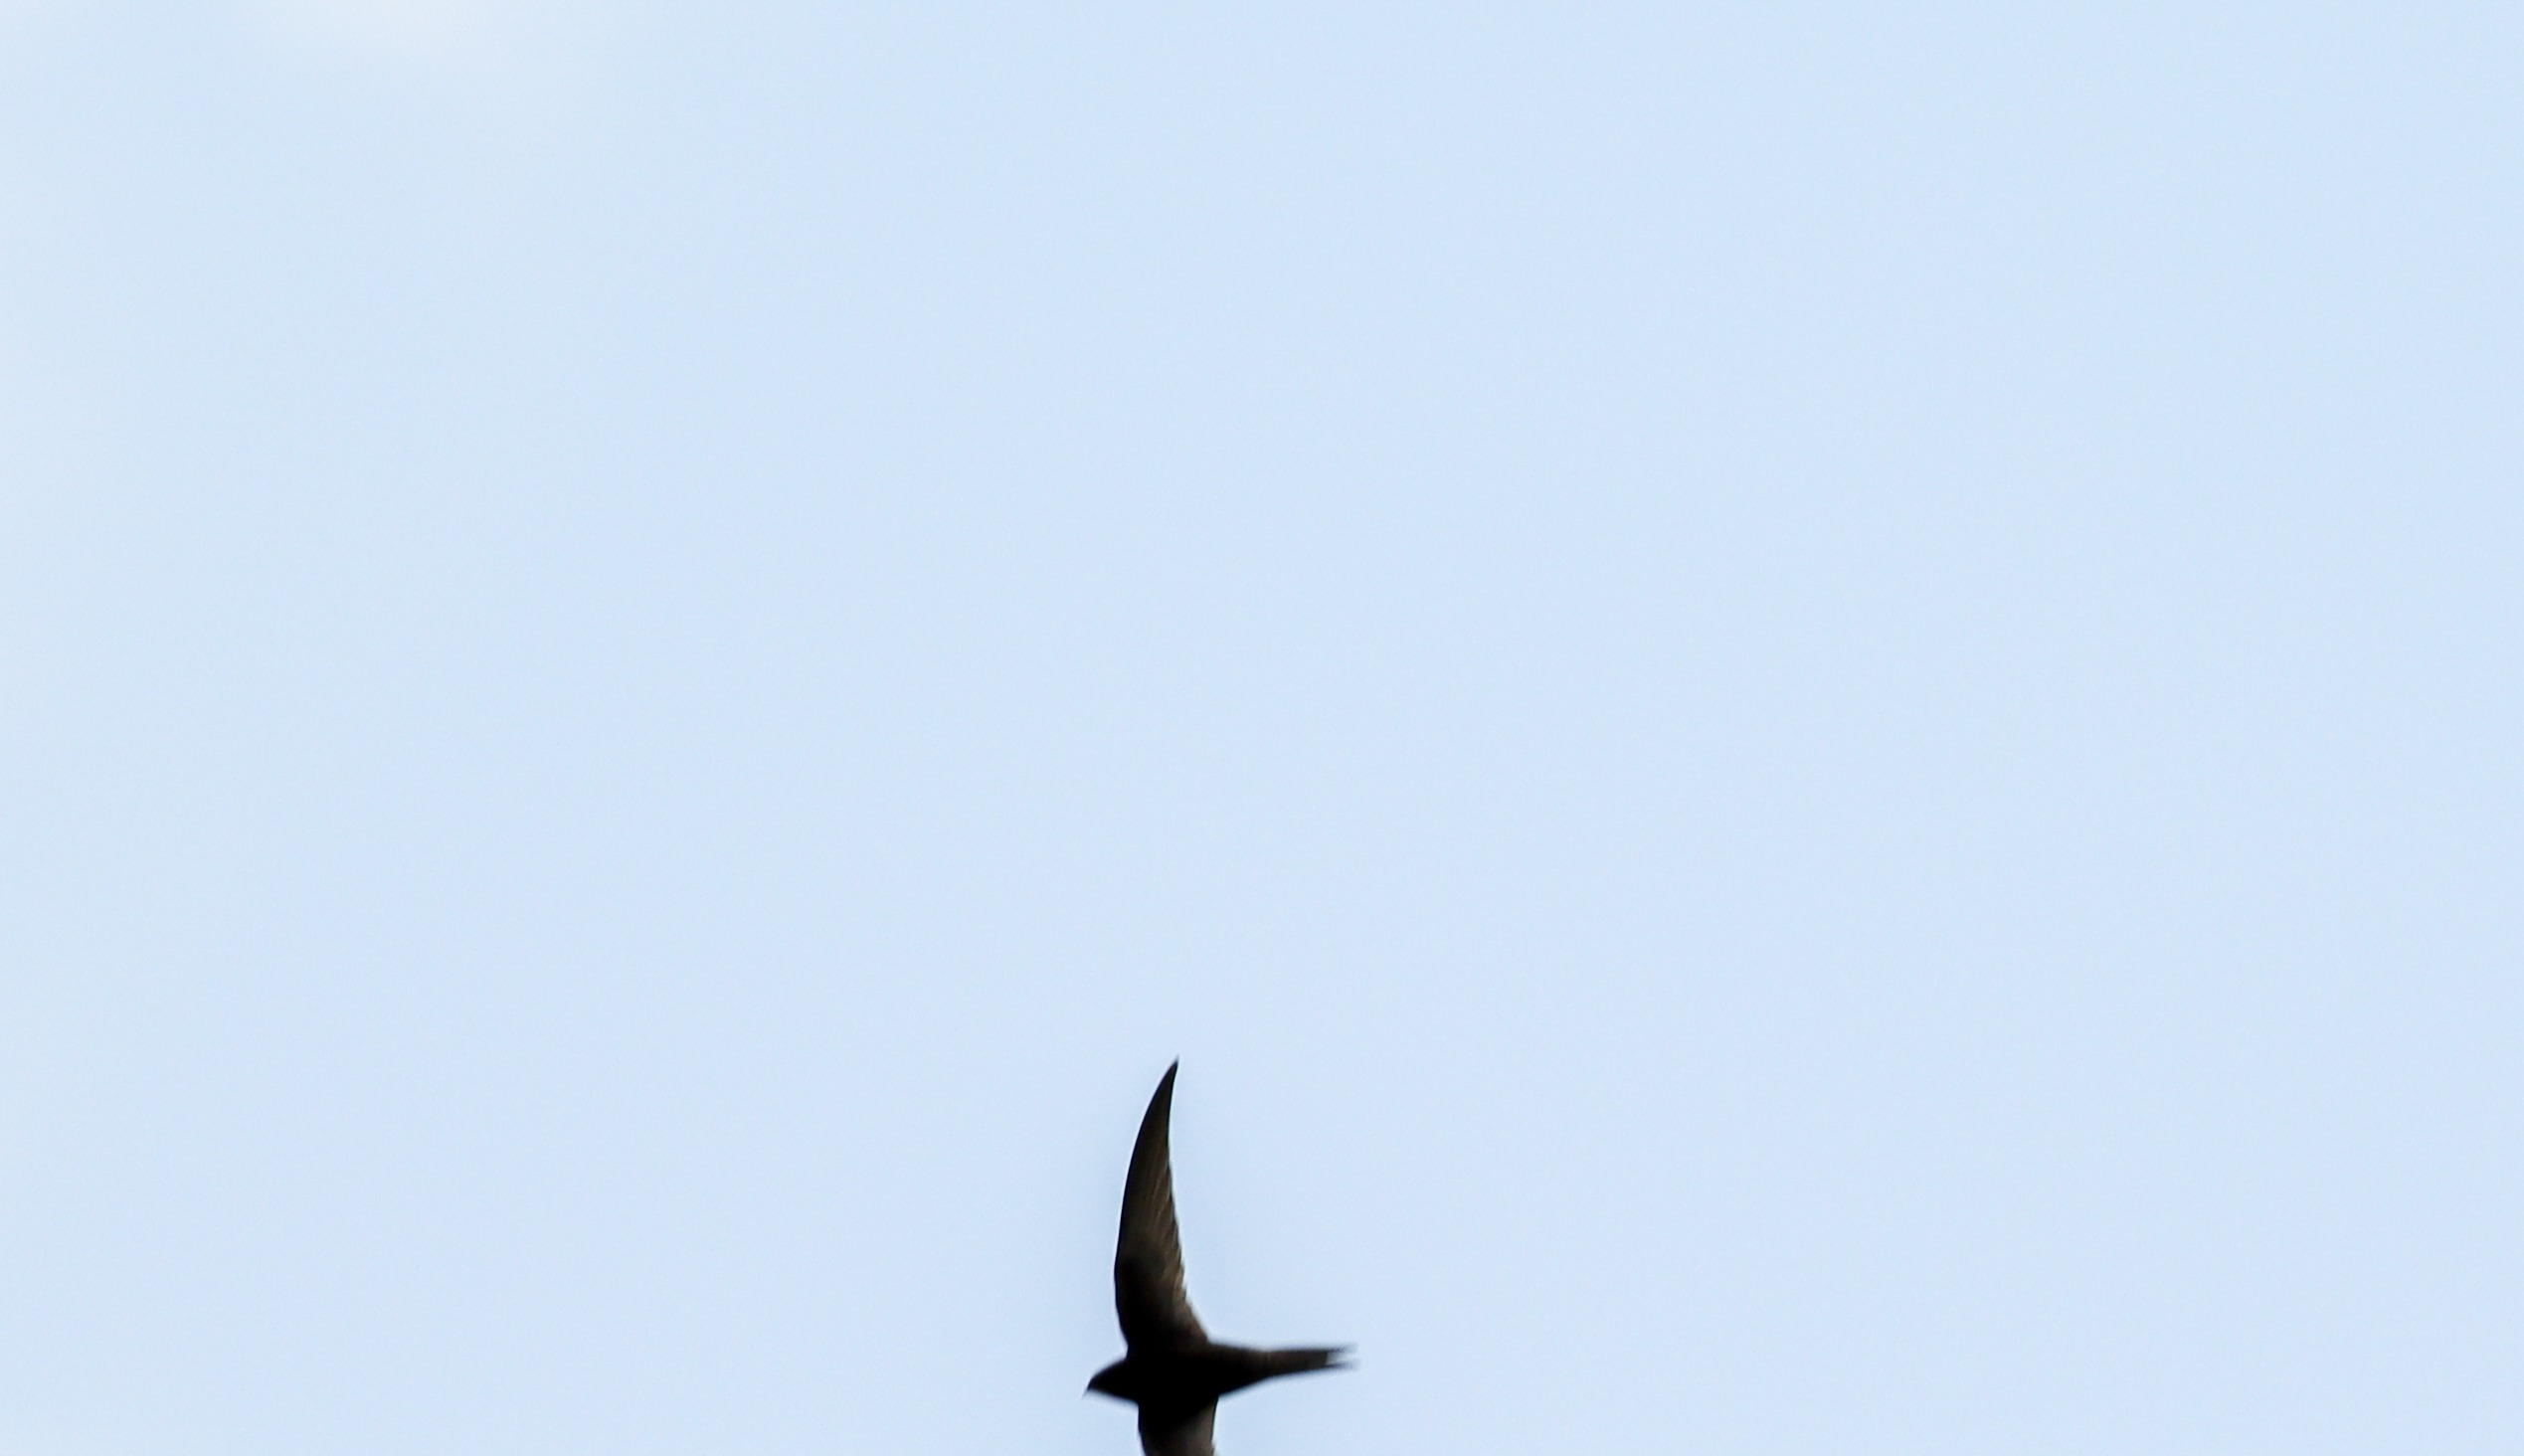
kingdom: Animalia
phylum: Chordata
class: Aves
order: Apodiformes
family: Apodidae
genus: Apus
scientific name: Apus apus
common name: Mursejler
